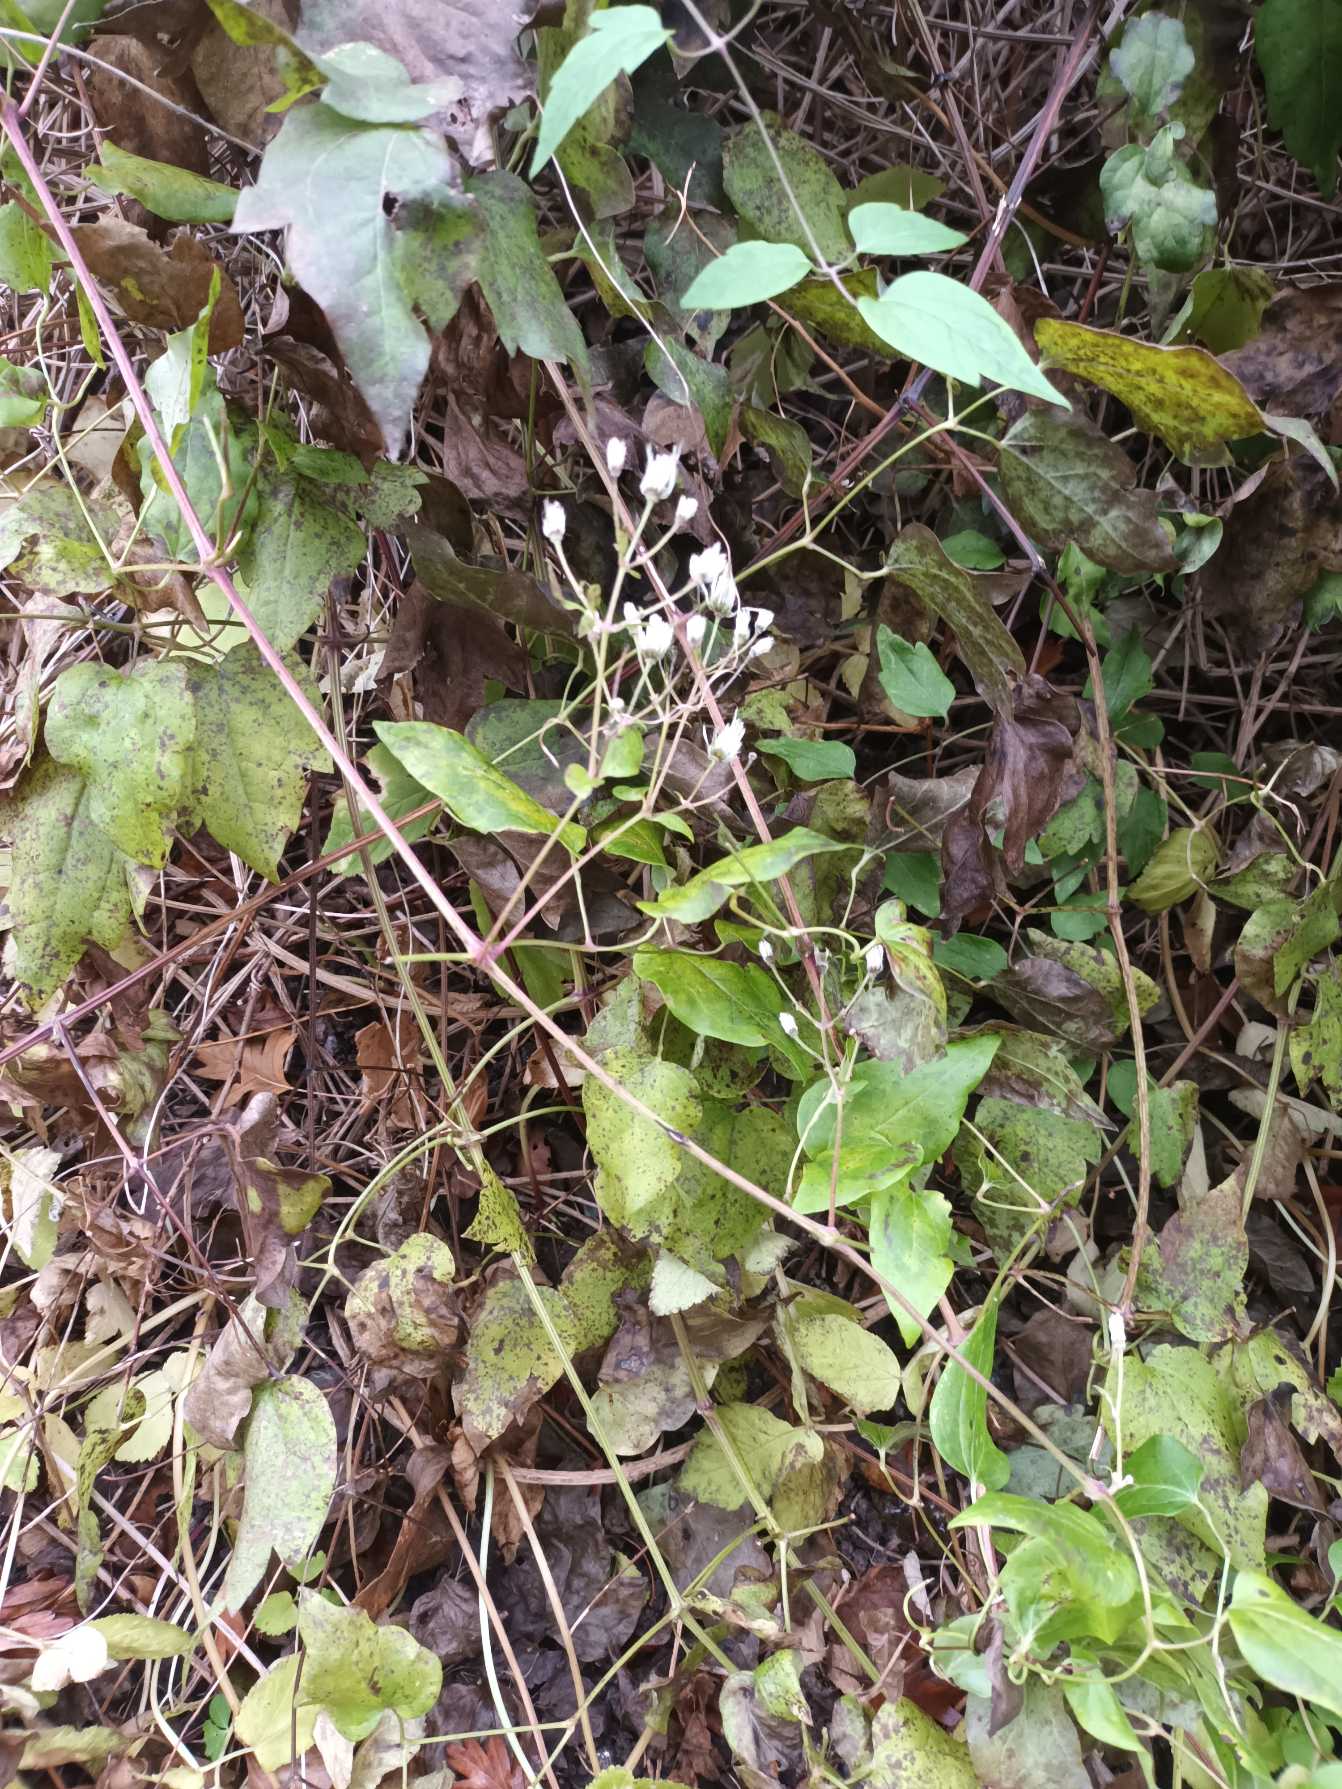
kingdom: Plantae
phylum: Tracheophyta
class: Magnoliopsida
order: Ranunculales
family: Ranunculaceae
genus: Clematis
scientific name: Clematis vitalba
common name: Skovranke
